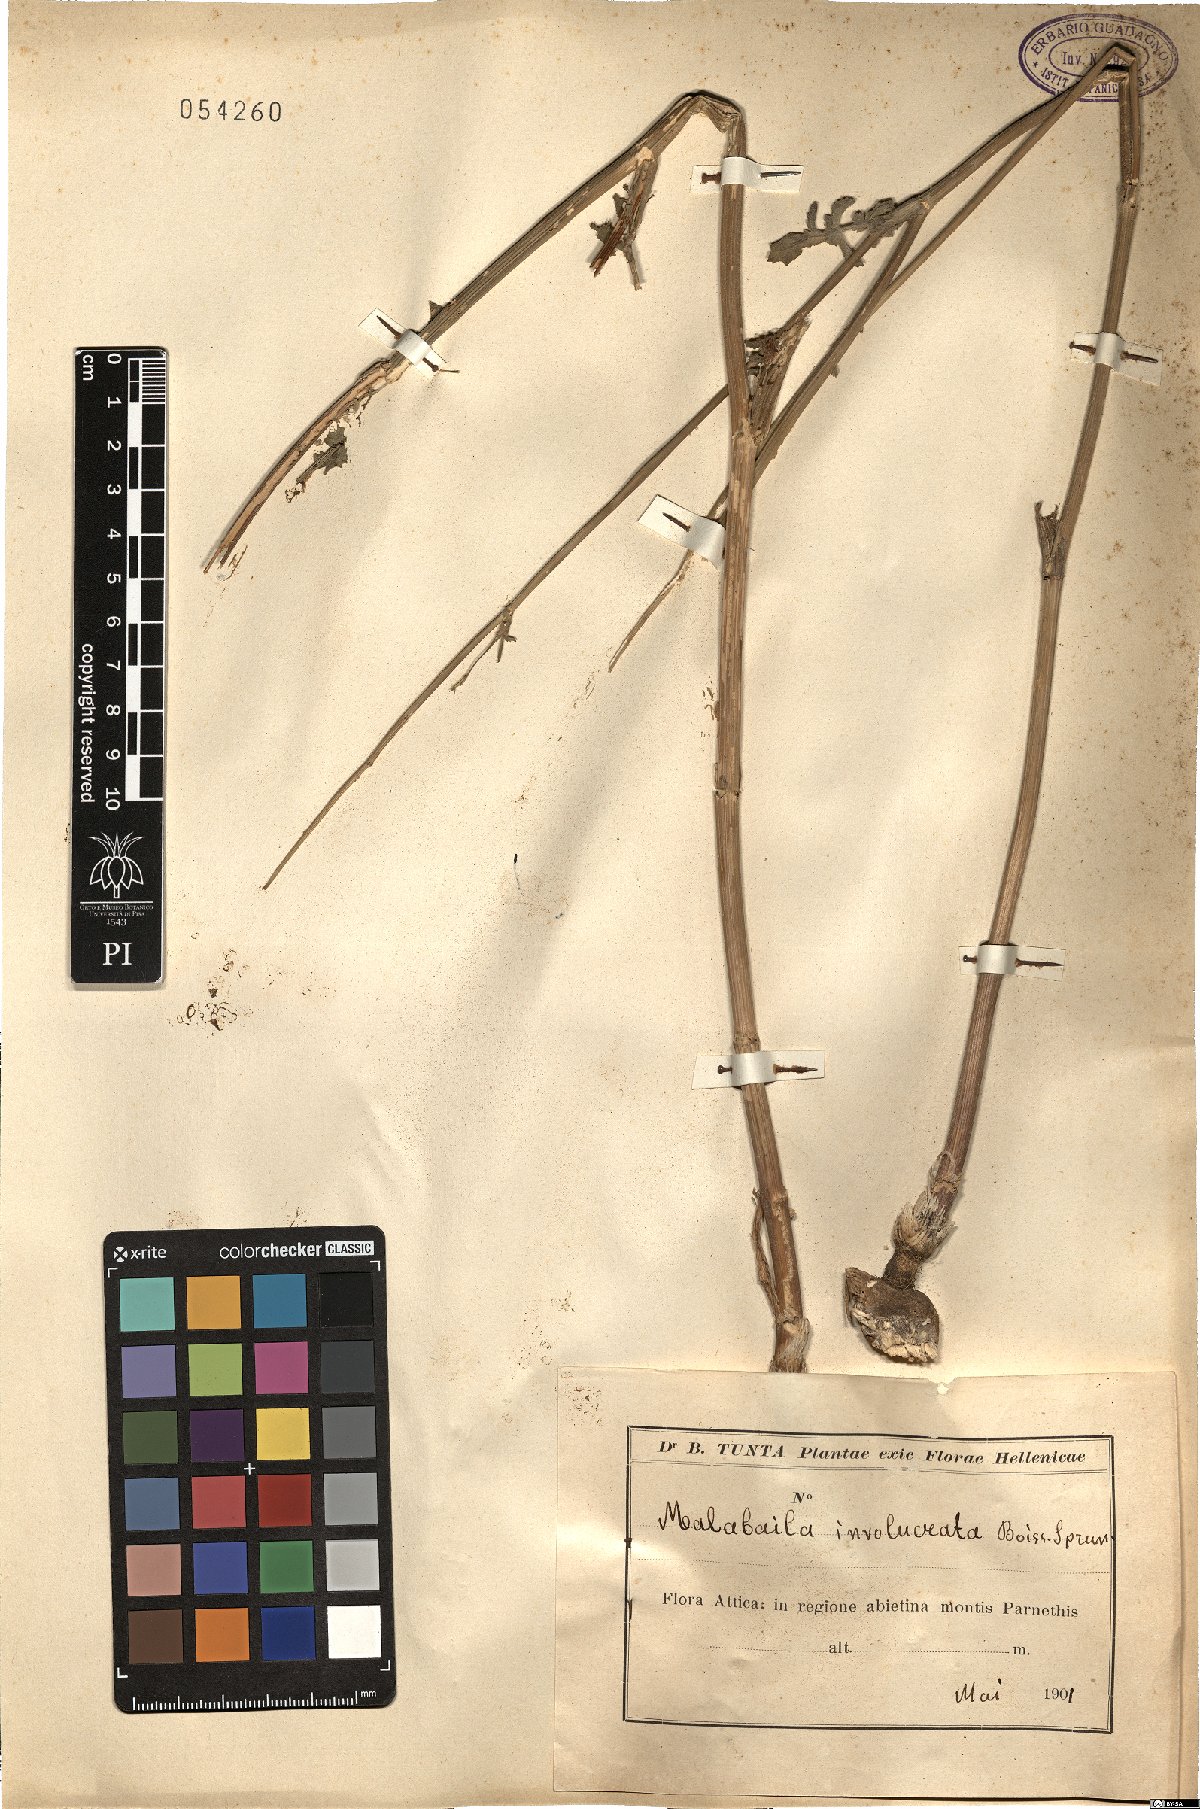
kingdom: Plantae
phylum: Tracheophyta
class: Magnoliopsida
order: Apiales
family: Apiaceae
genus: Leiotulus
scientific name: Leiotulus involucratus
